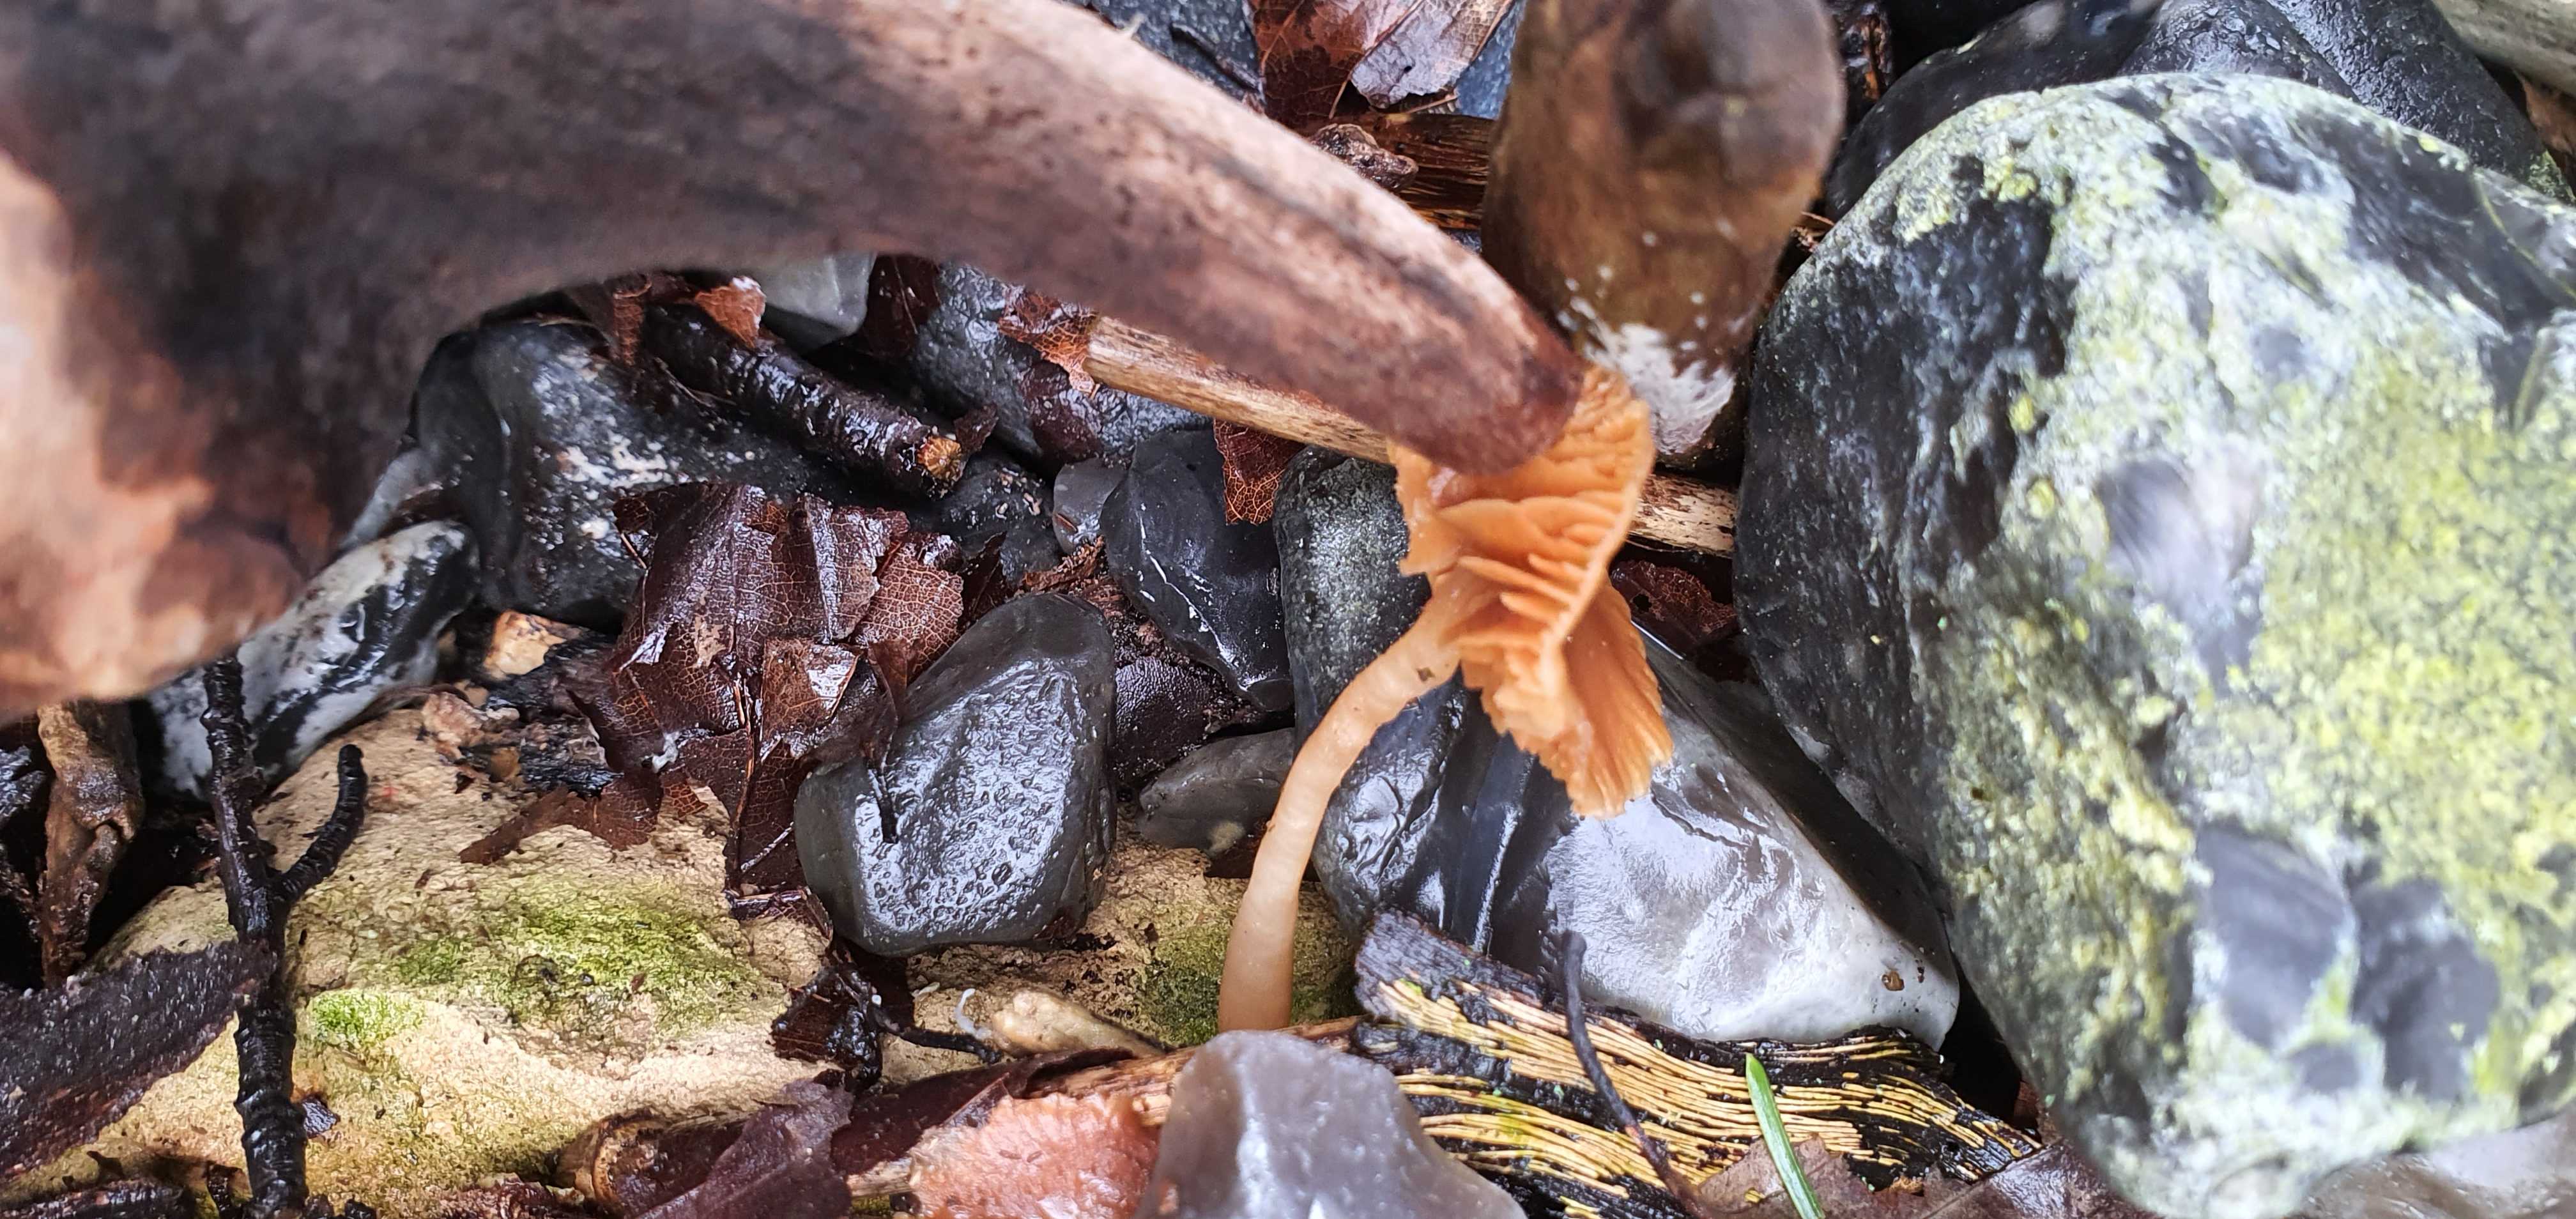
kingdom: Fungi
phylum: Basidiomycota
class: Agaricomycetes
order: Agaricales
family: Tubariaceae
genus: Tubaria
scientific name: Tubaria furfuracea
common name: kliddet fnughat
